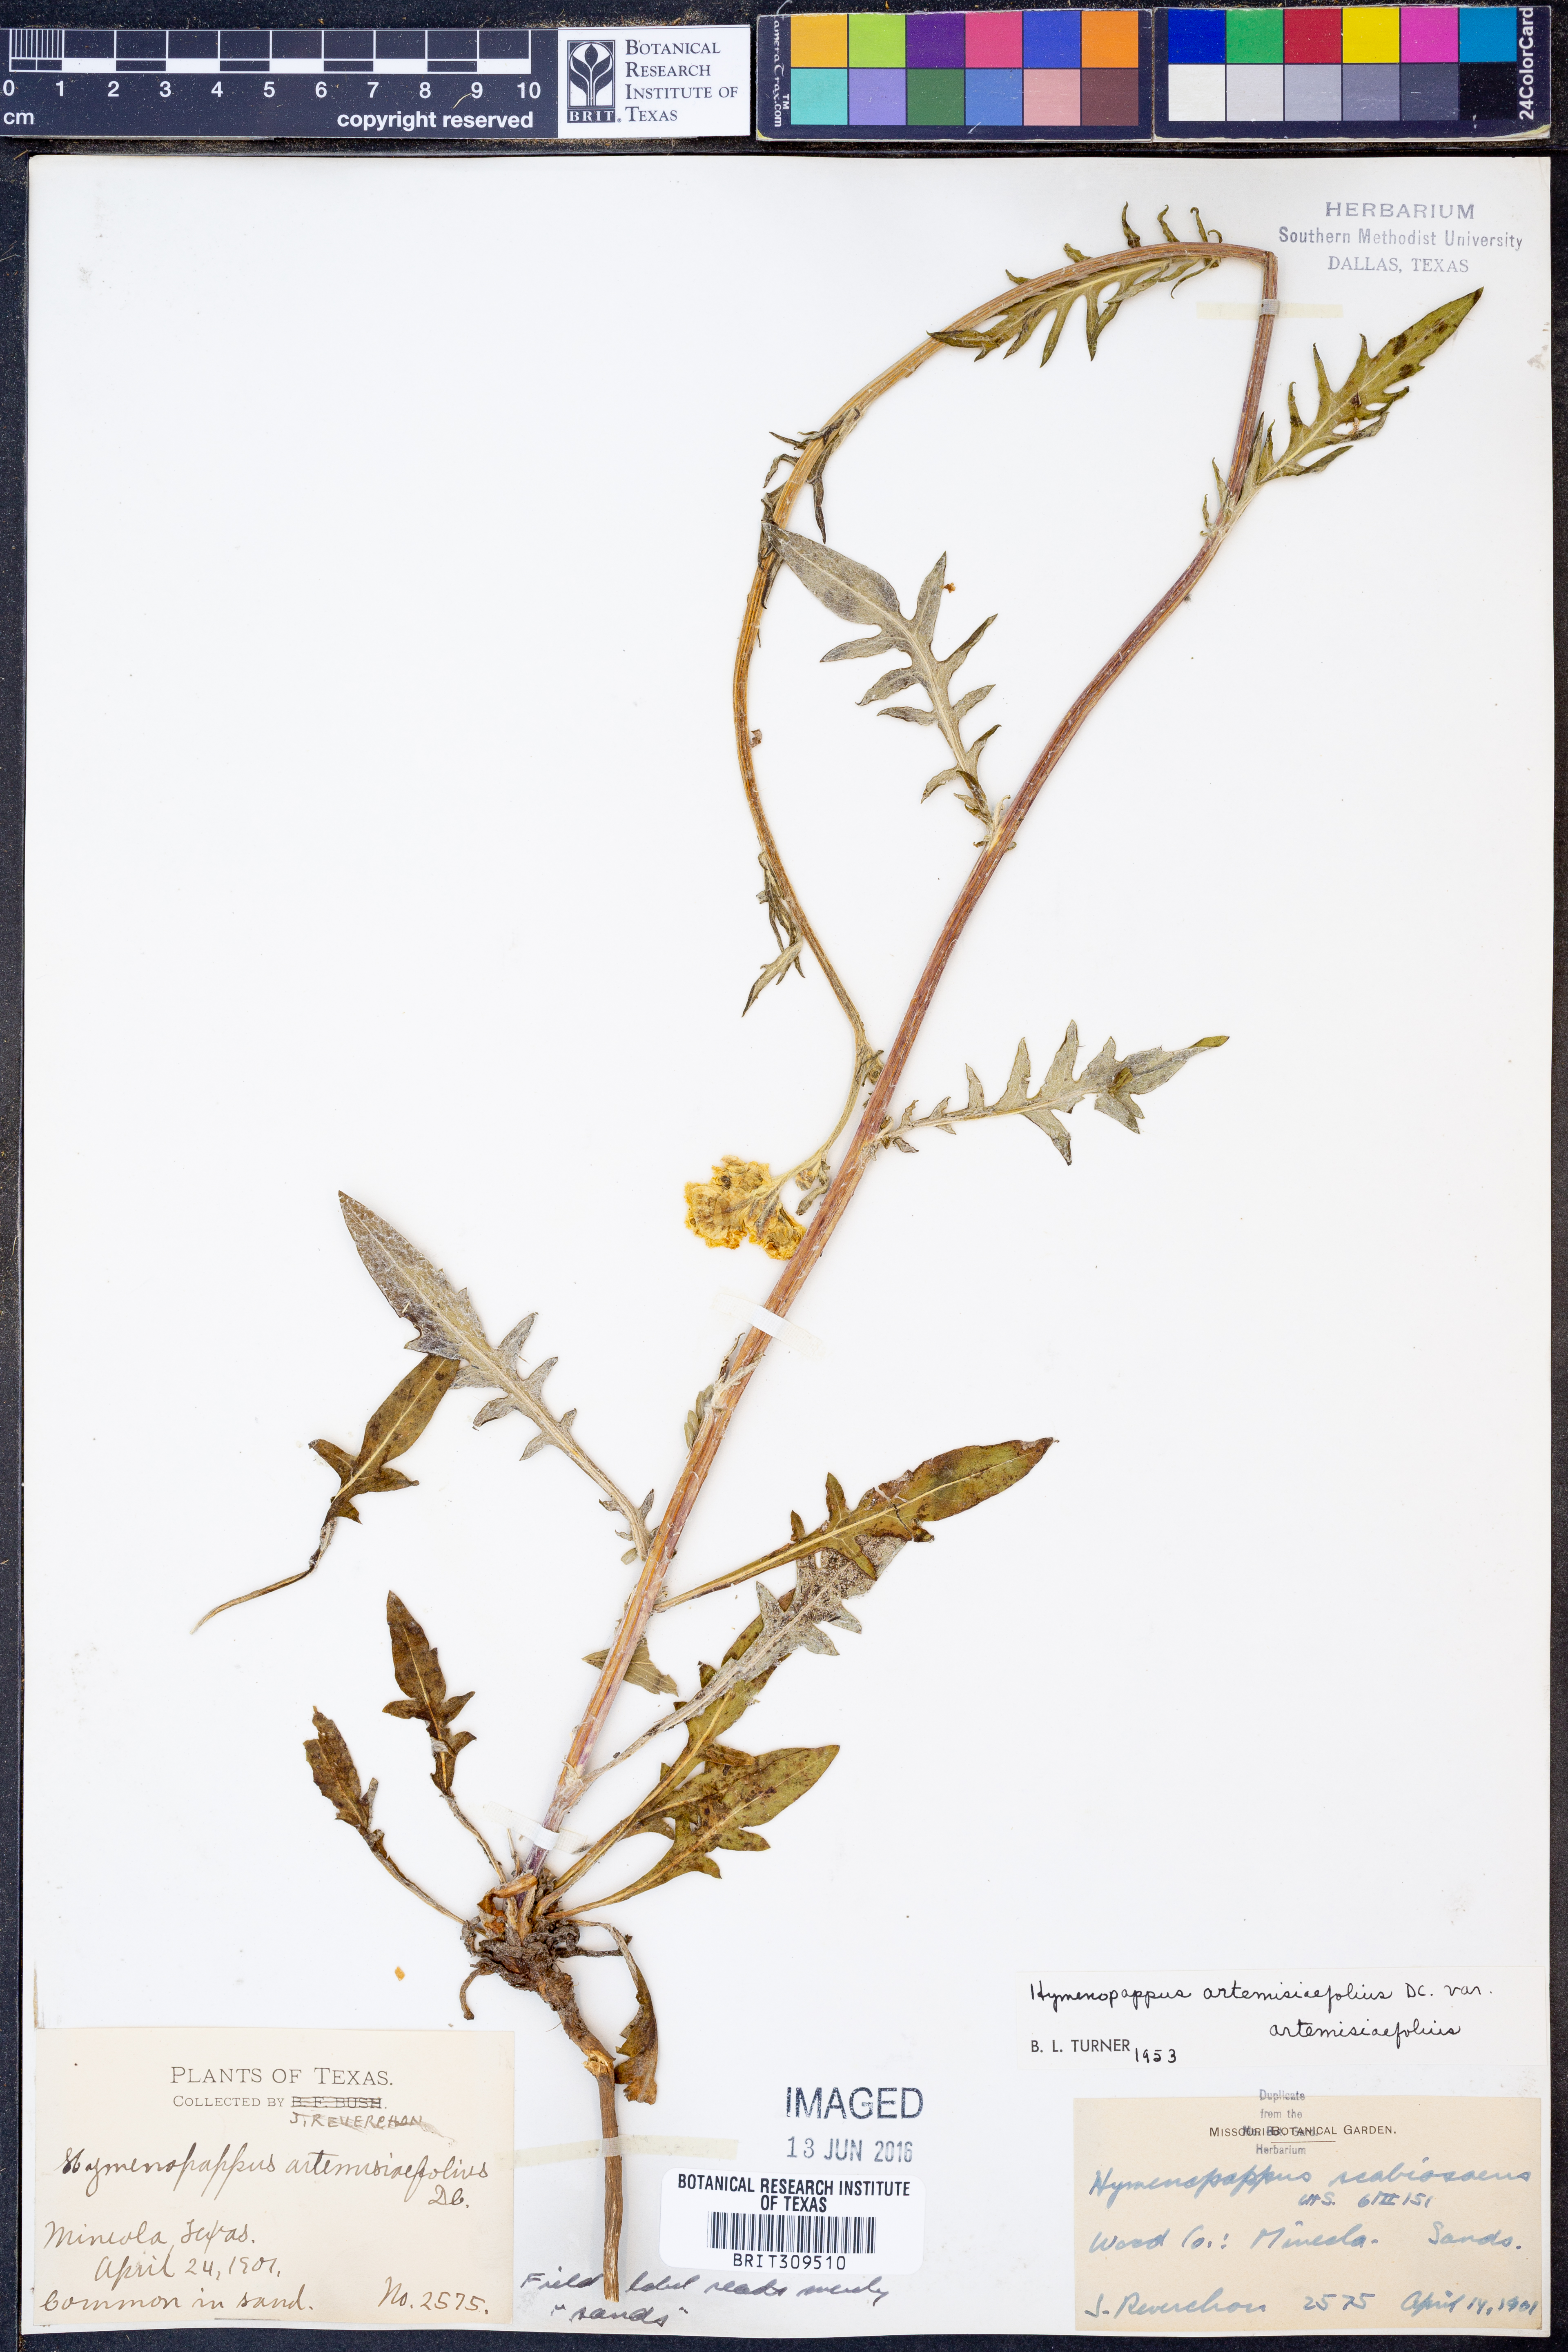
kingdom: Plantae
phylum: Tracheophyta
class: Magnoliopsida
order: Asterales
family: Asteraceae
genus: Hymenopappus
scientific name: Hymenopappus artemisiifolius
